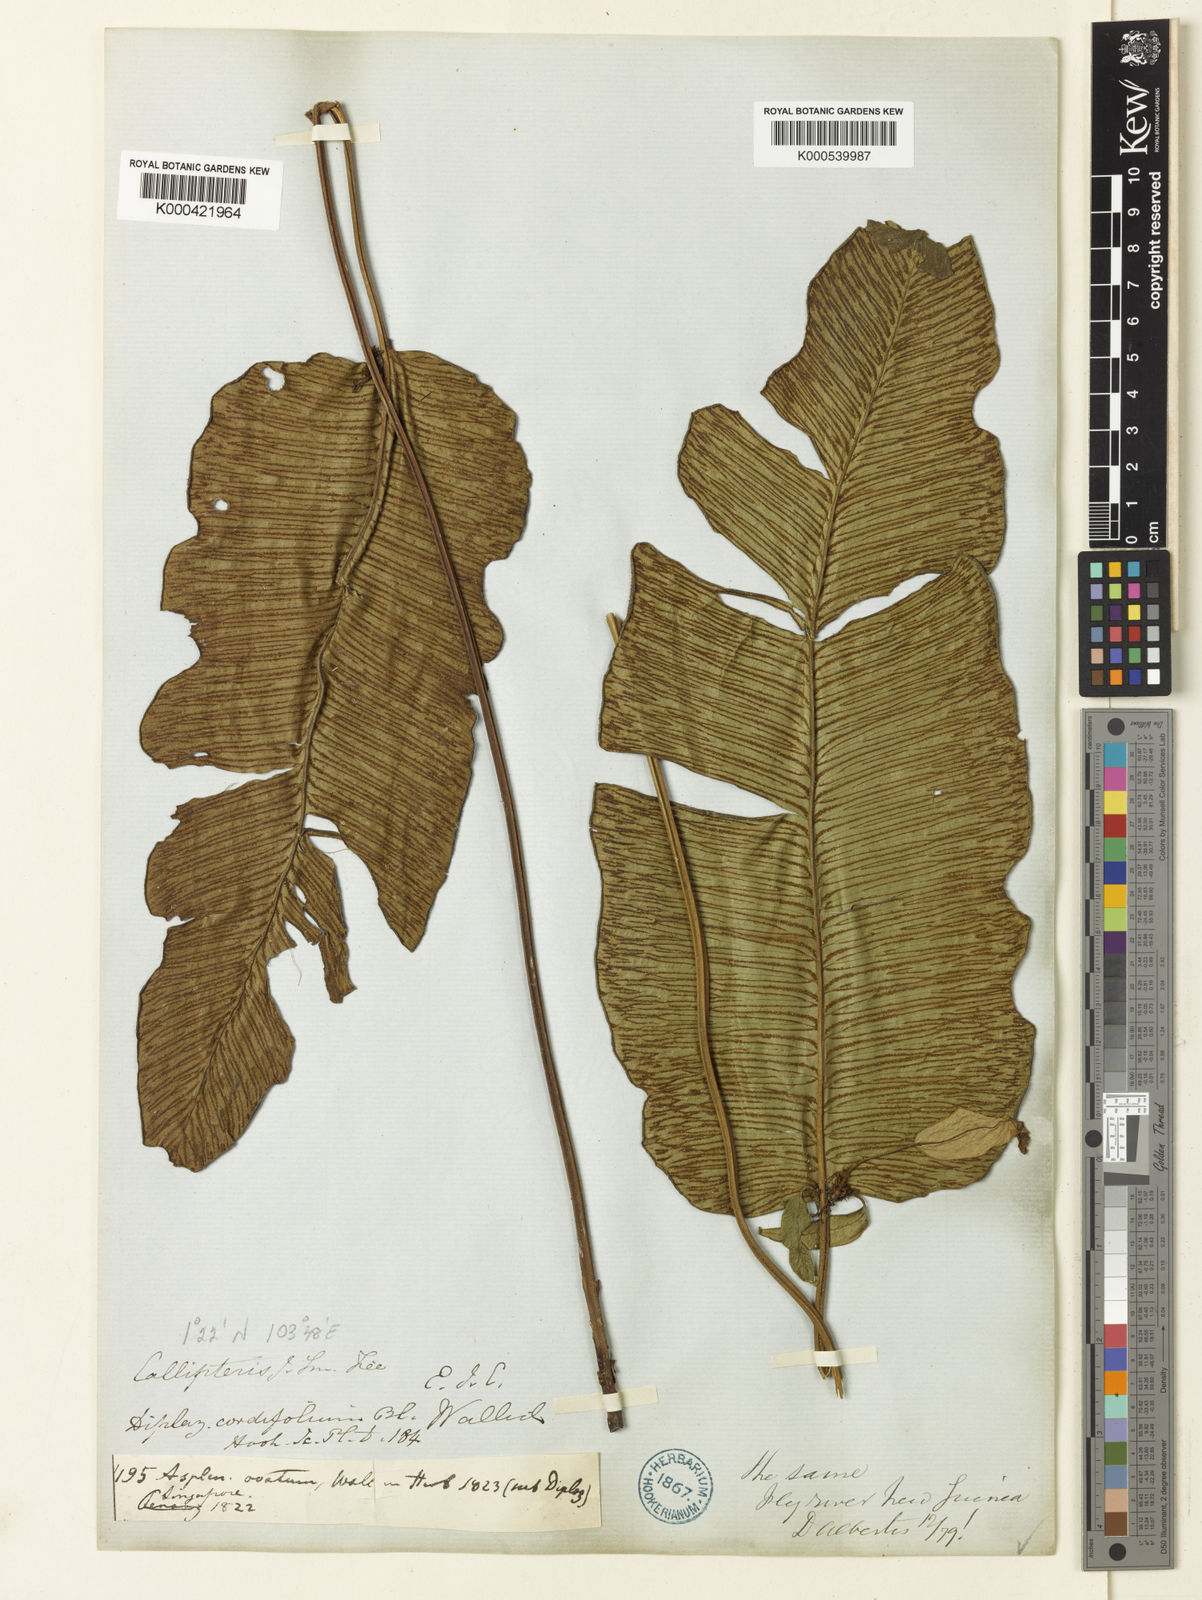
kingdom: Plantae
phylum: Tracheophyta
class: Polypodiopsida
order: Polypodiales
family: Athyriaceae
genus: Diplazium
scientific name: Diplazium cordifolium
